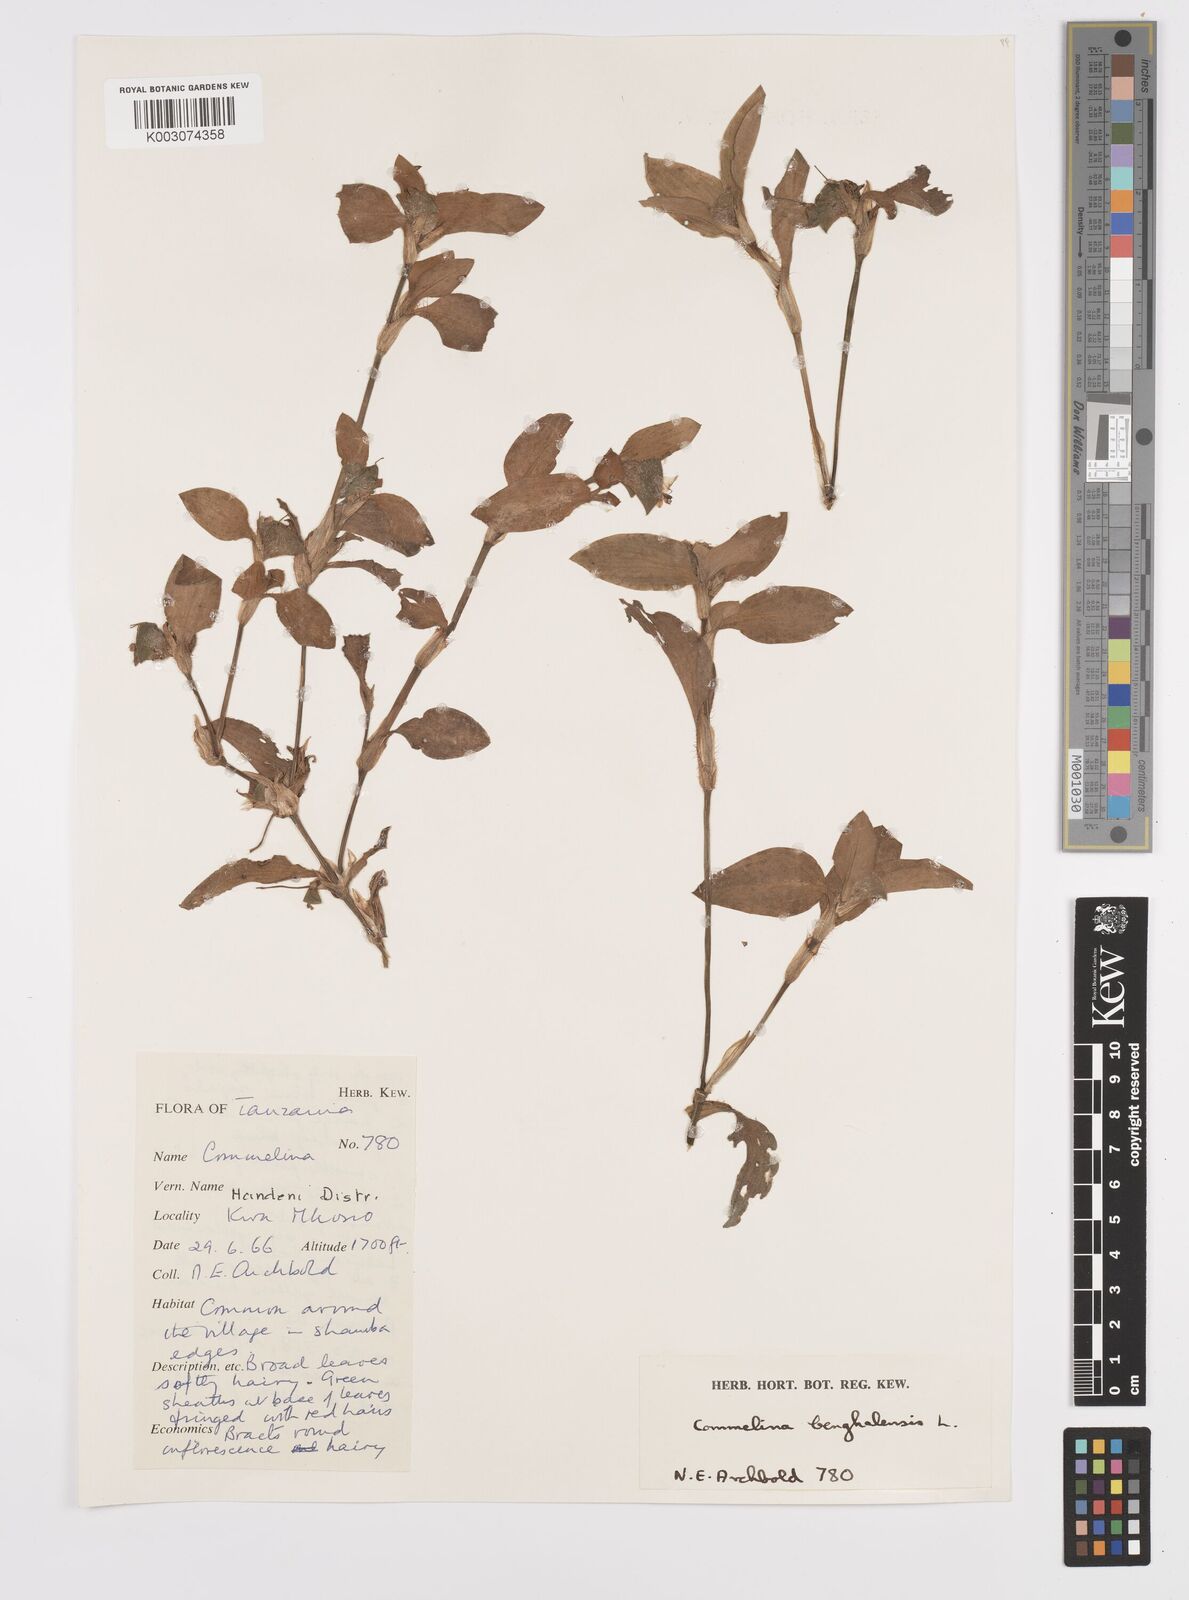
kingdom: Plantae
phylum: Tracheophyta
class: Liliopsida
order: Commelinales
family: Commelinaceae
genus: Commelina
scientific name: Commelina benghalensis
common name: Jio
